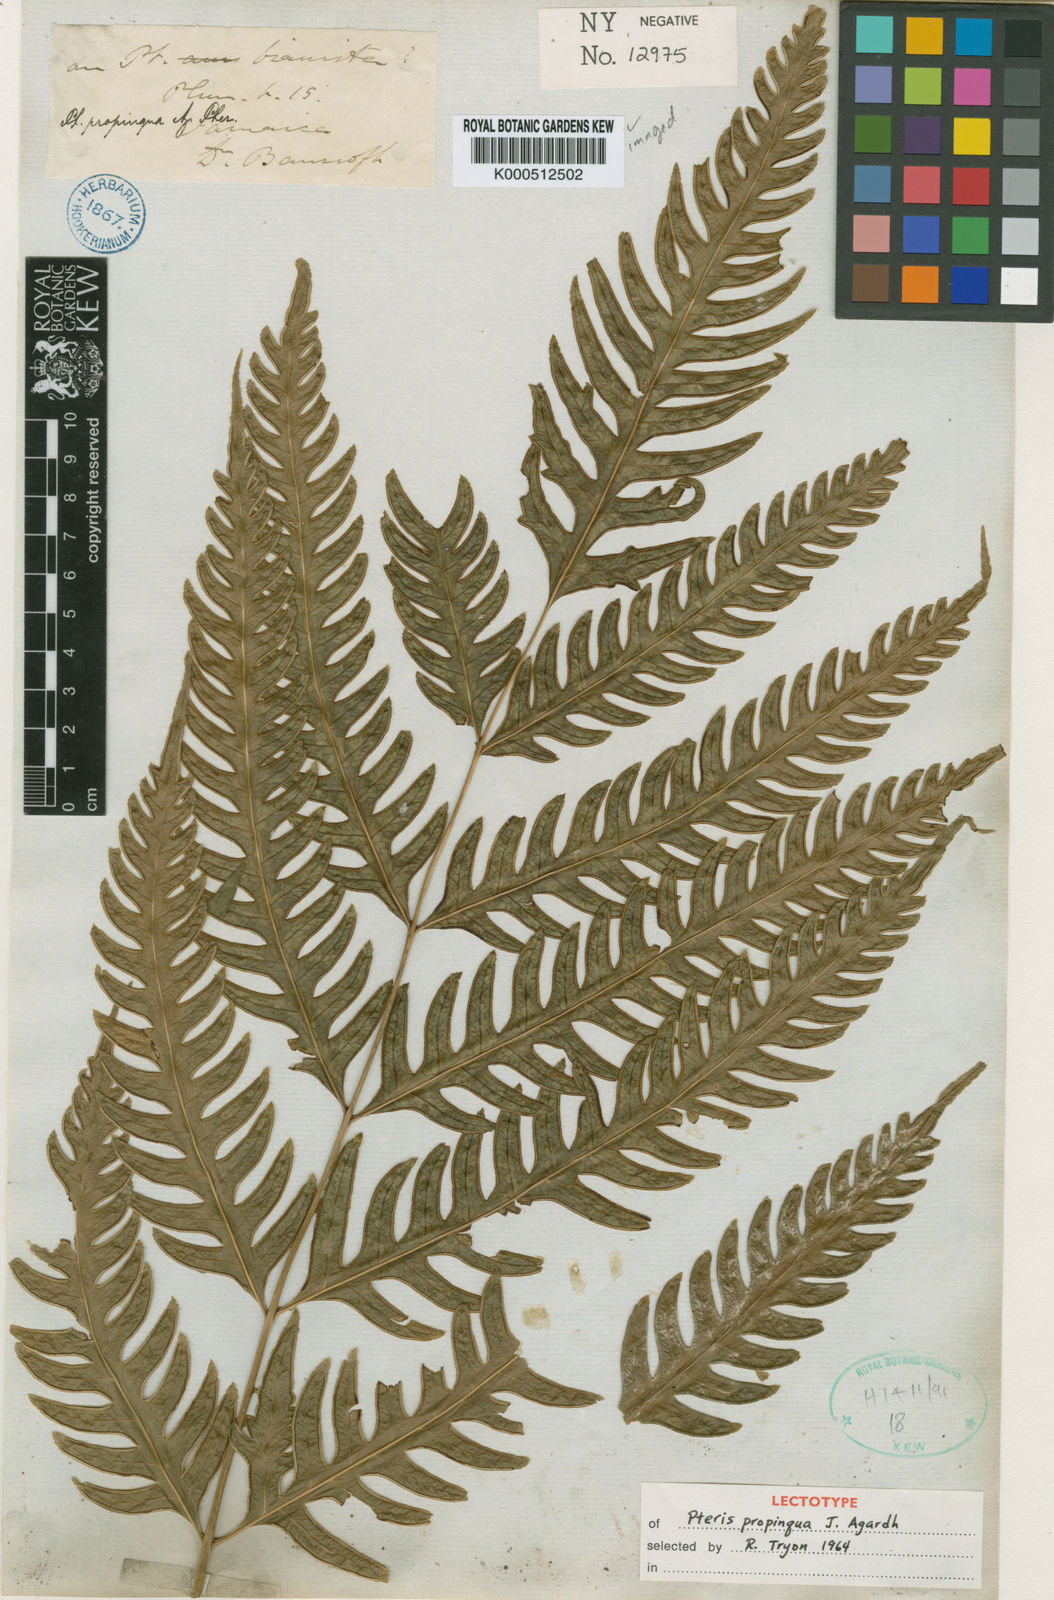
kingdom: Plantae
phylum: Tracheophyta
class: Polypodiopsida
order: Polypodiales
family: Pteridaceae
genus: Pteris
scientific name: Pteris propinqua
